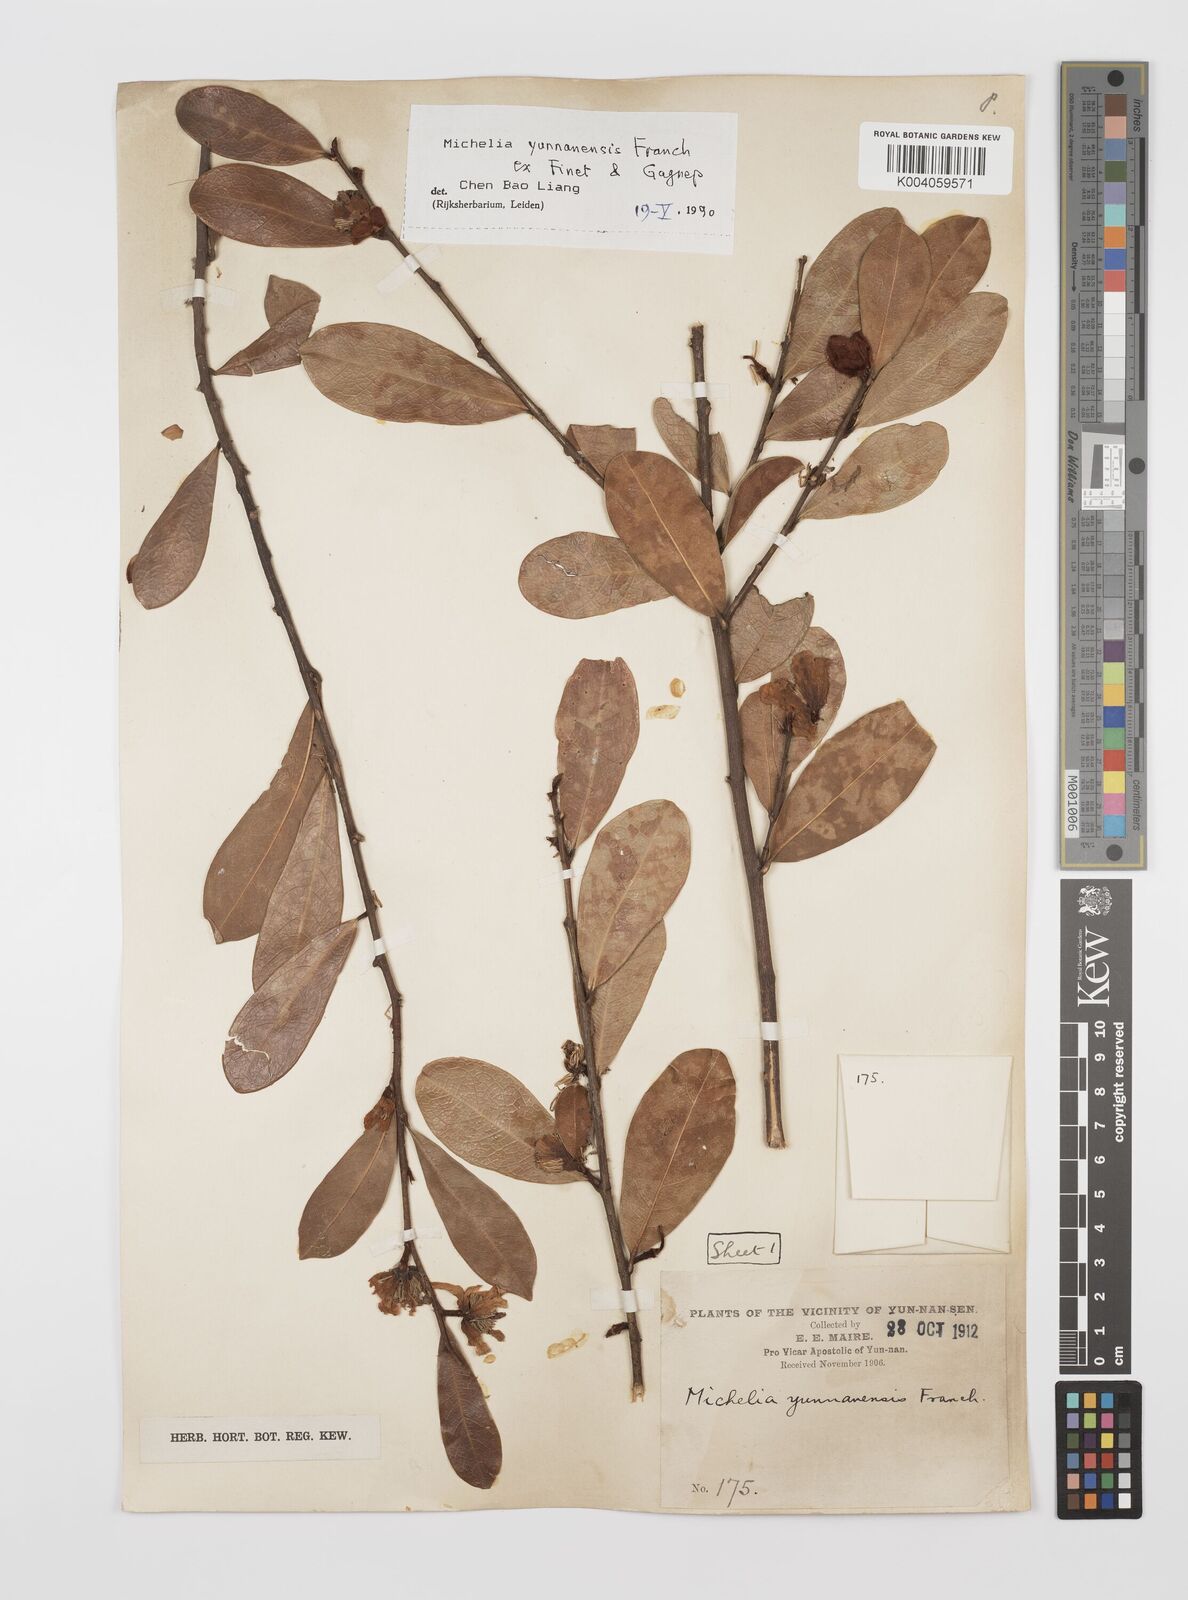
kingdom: Plantae
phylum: Tracheophyta
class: Magnoliopsida
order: Magnoliales
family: Magnoliaceae
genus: Magnolia
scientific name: Magnolia laevifolia
